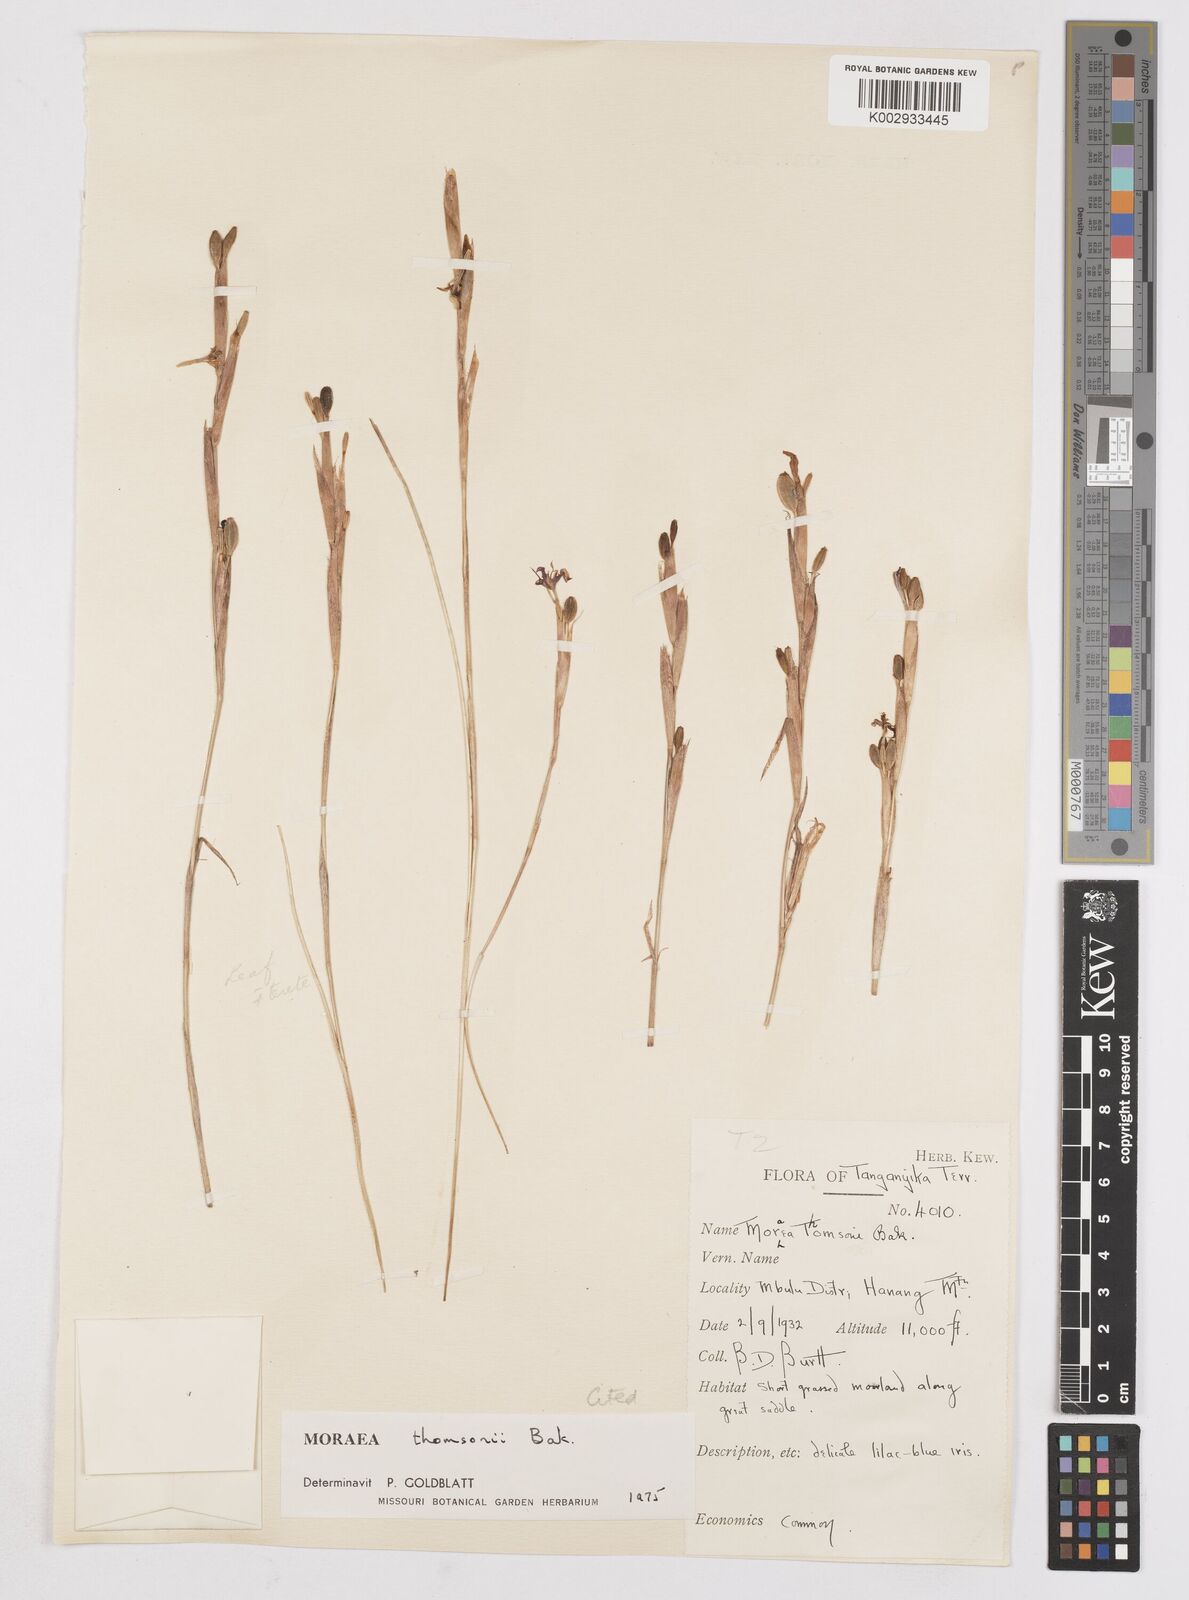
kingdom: Plantae
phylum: Tracheophyta
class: Liliopsida
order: Asparagales
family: Iridaceae
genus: Moraea
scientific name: Moraea stricta
